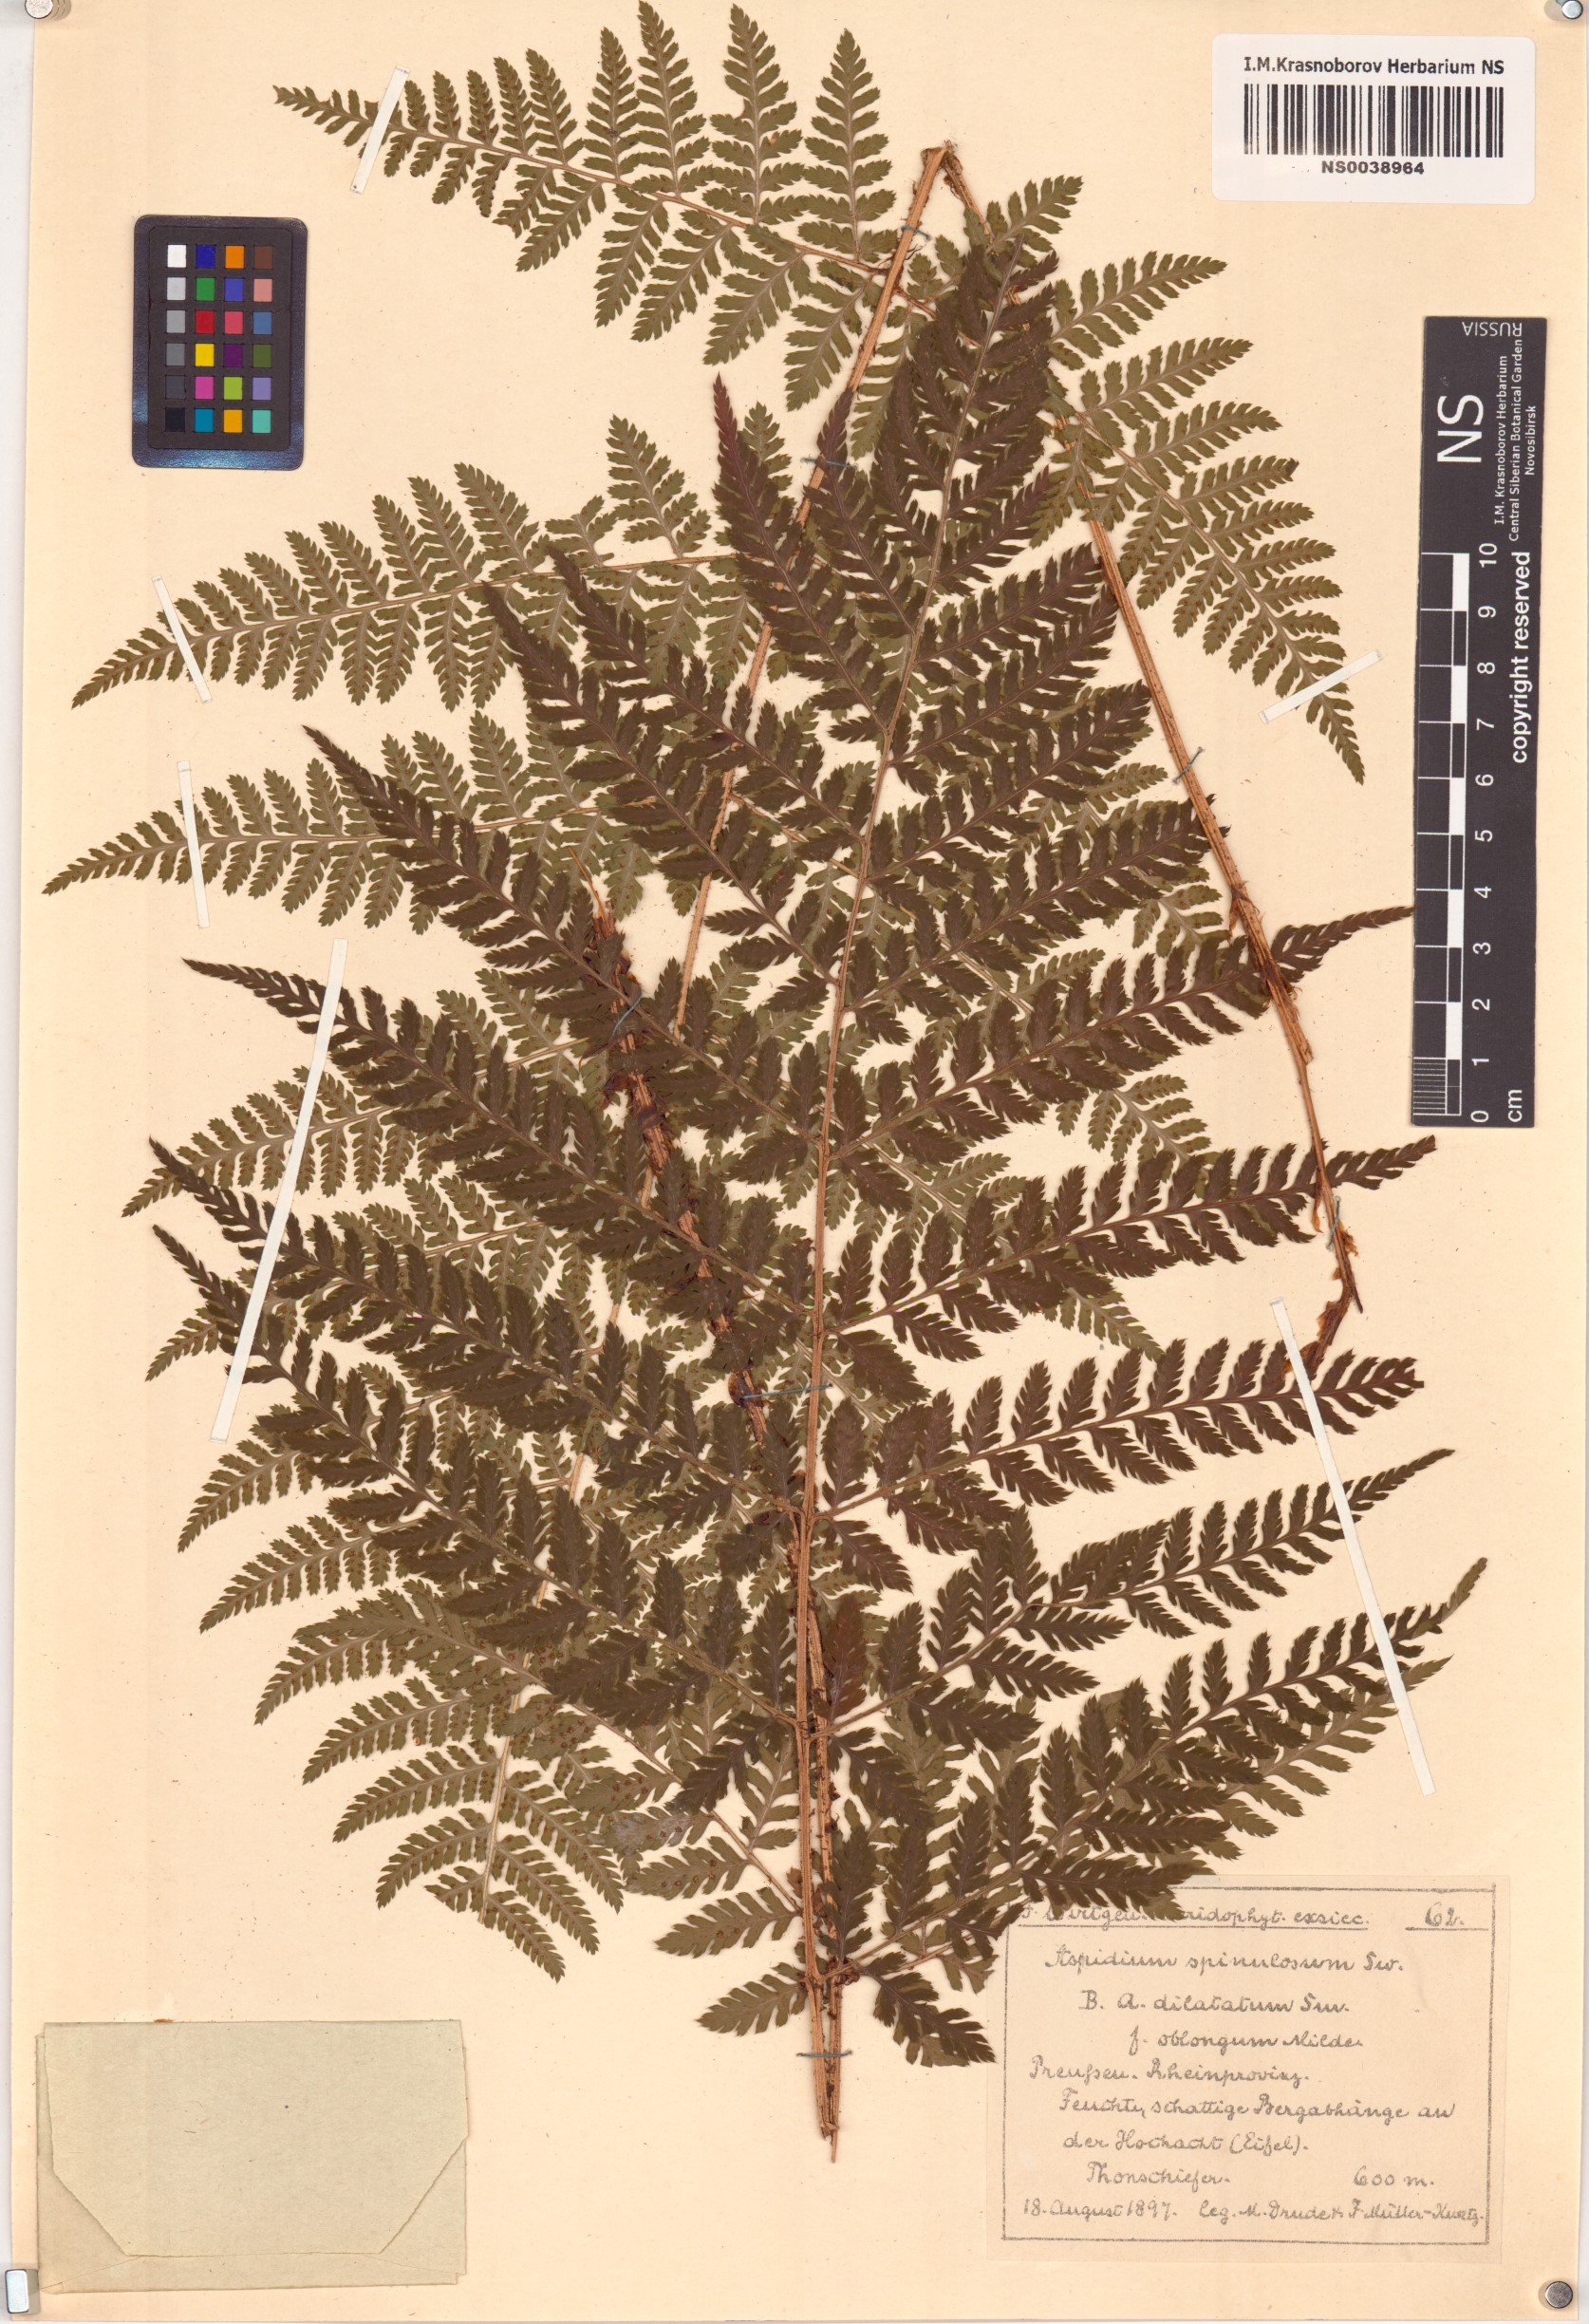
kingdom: Plantae
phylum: Tracheophyta
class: Polypodiopsida
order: Polypodiales
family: Dryopteridaceae
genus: Dryopteris
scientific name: Dryopteris carthusiana
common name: Narrow buckler-fern
